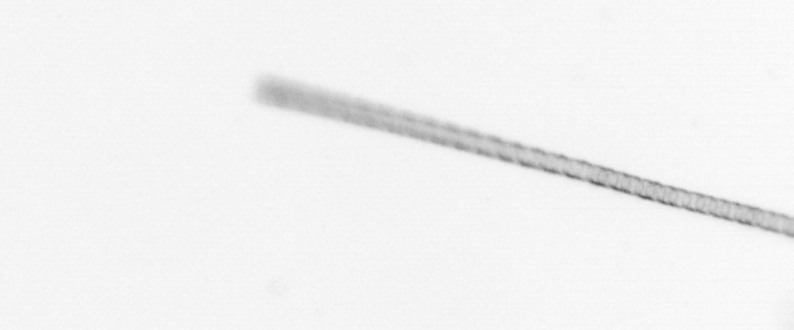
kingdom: Chromista
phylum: Ochrophyta
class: Bacillariophyceae
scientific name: Bacillariophyceae
